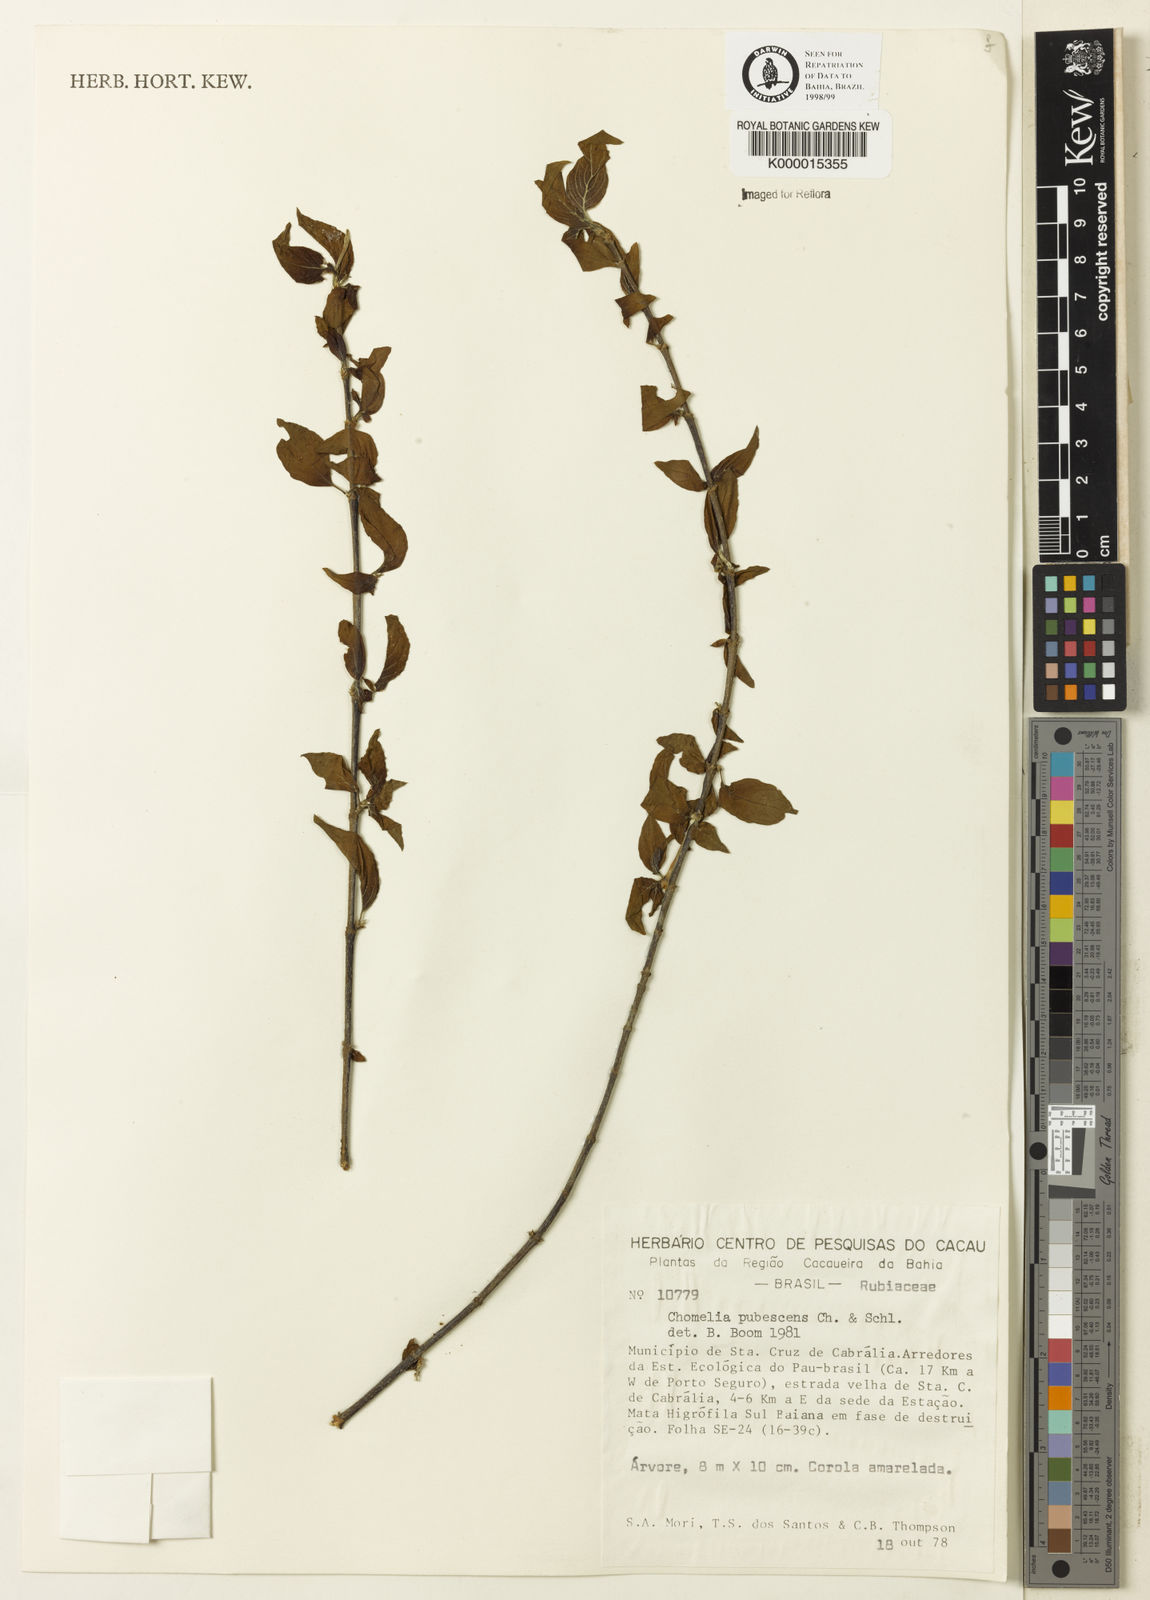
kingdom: Plantae
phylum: Tracheophyta
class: Magnoliopsida
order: Gentianales
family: Rubiaceae
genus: Chomelia
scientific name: Chomelia pubescens
